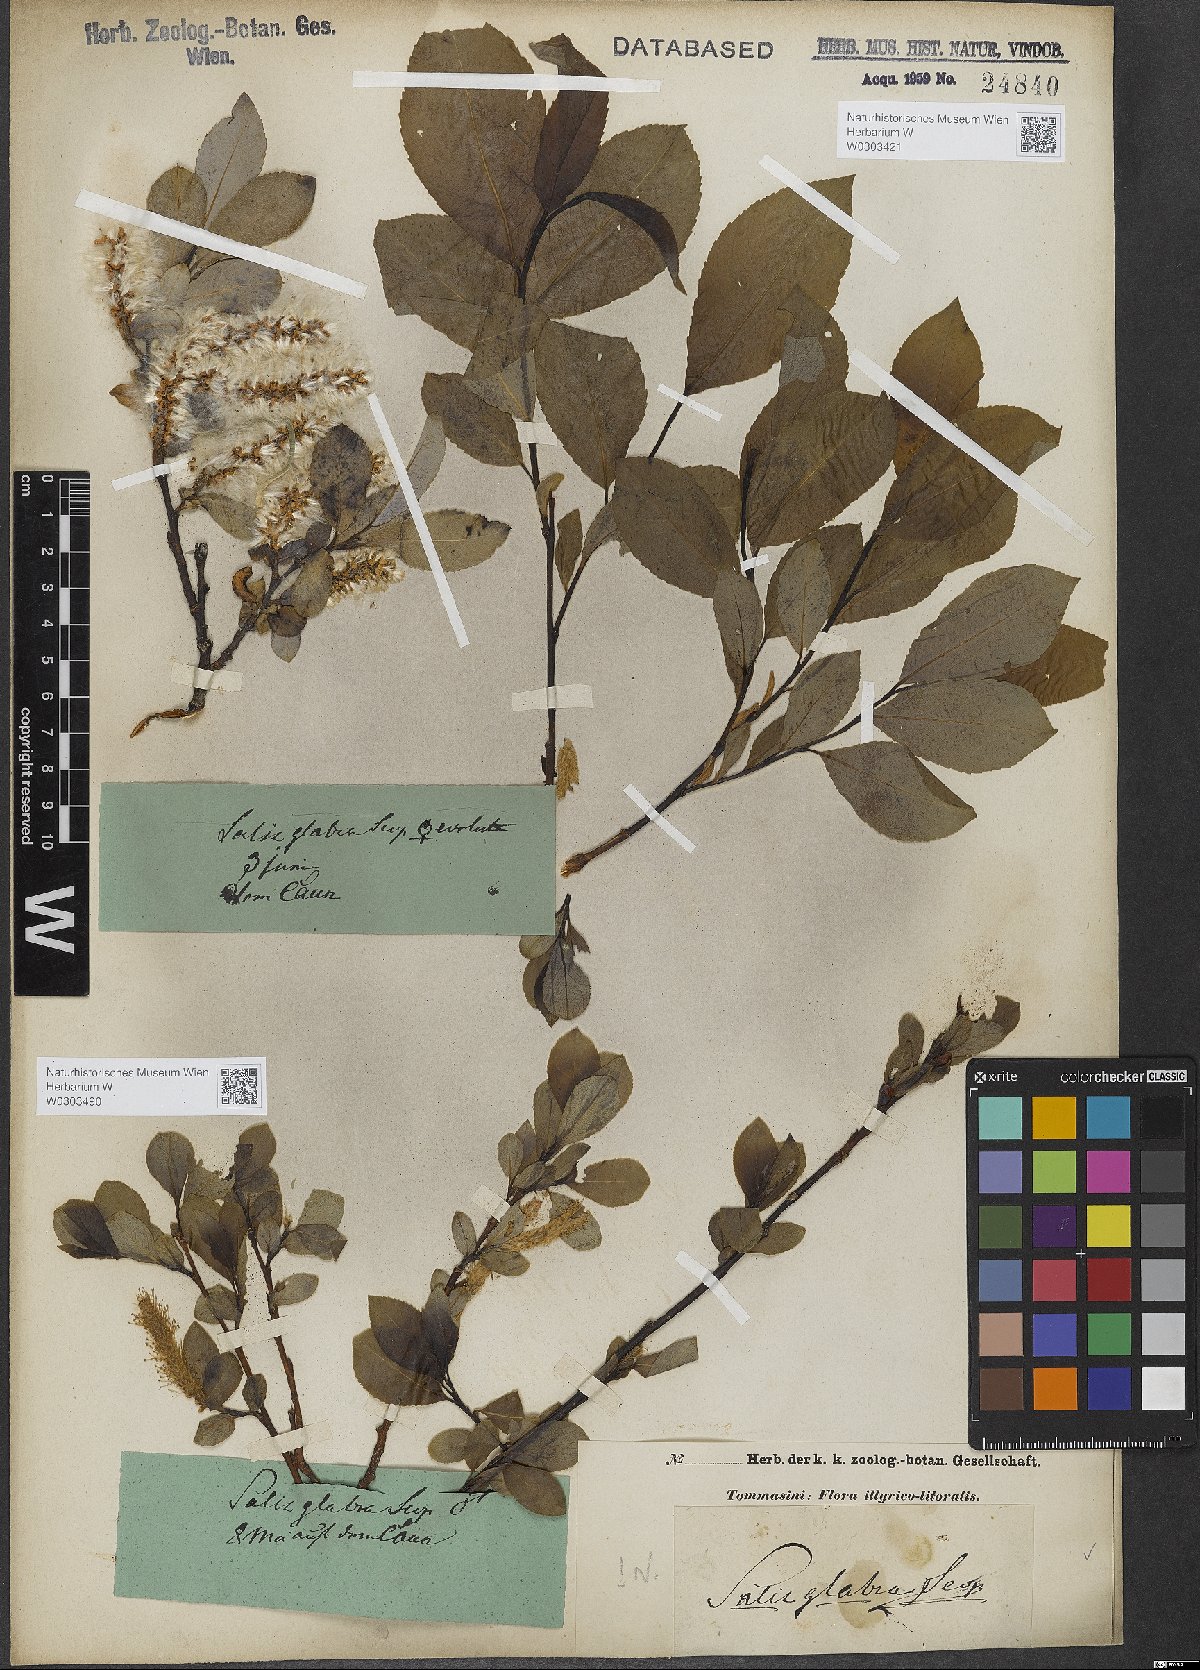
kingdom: Plantae
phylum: Tracheophyta
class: Magnoliopsida
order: Malpighiales
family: Salicaceae
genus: Salix
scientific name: Salix glabra
